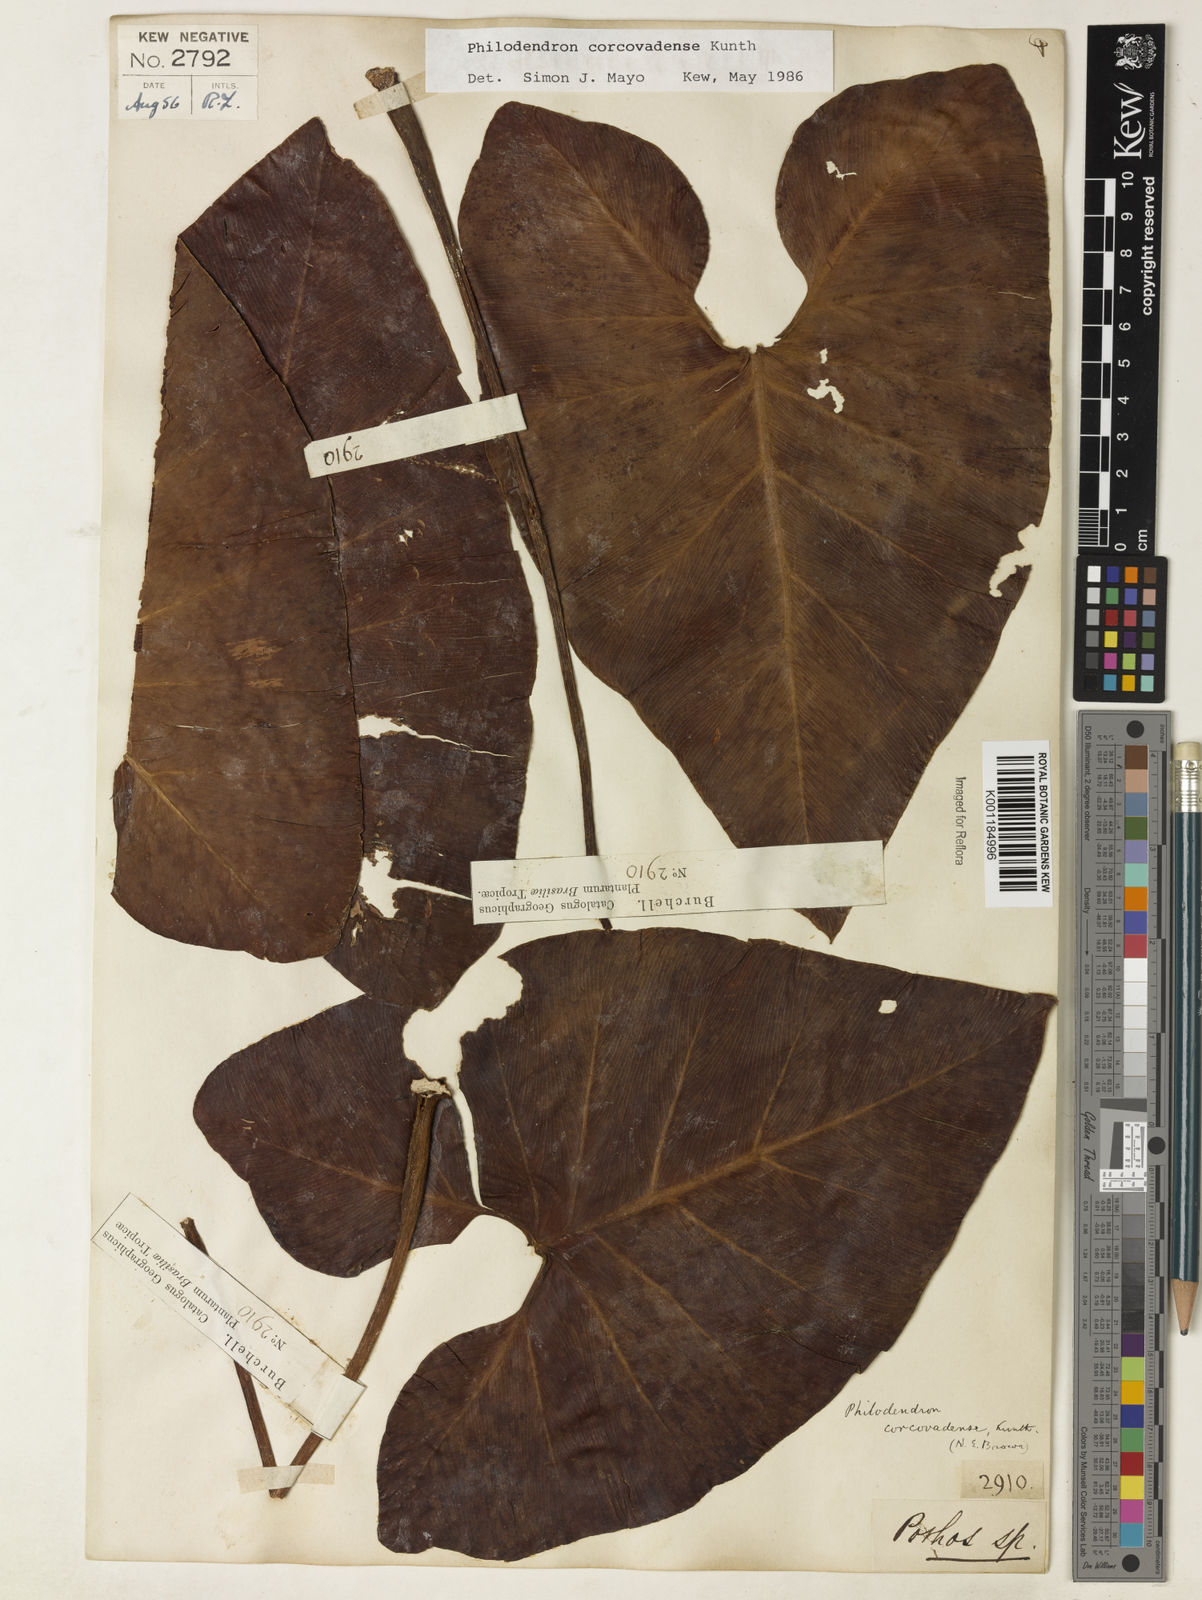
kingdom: Plantae
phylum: Tracheophyta
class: Liliopsida
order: Alismatales
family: Araceae
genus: Thaumatophyllum
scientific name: Thaumatophyllum corcovadense
